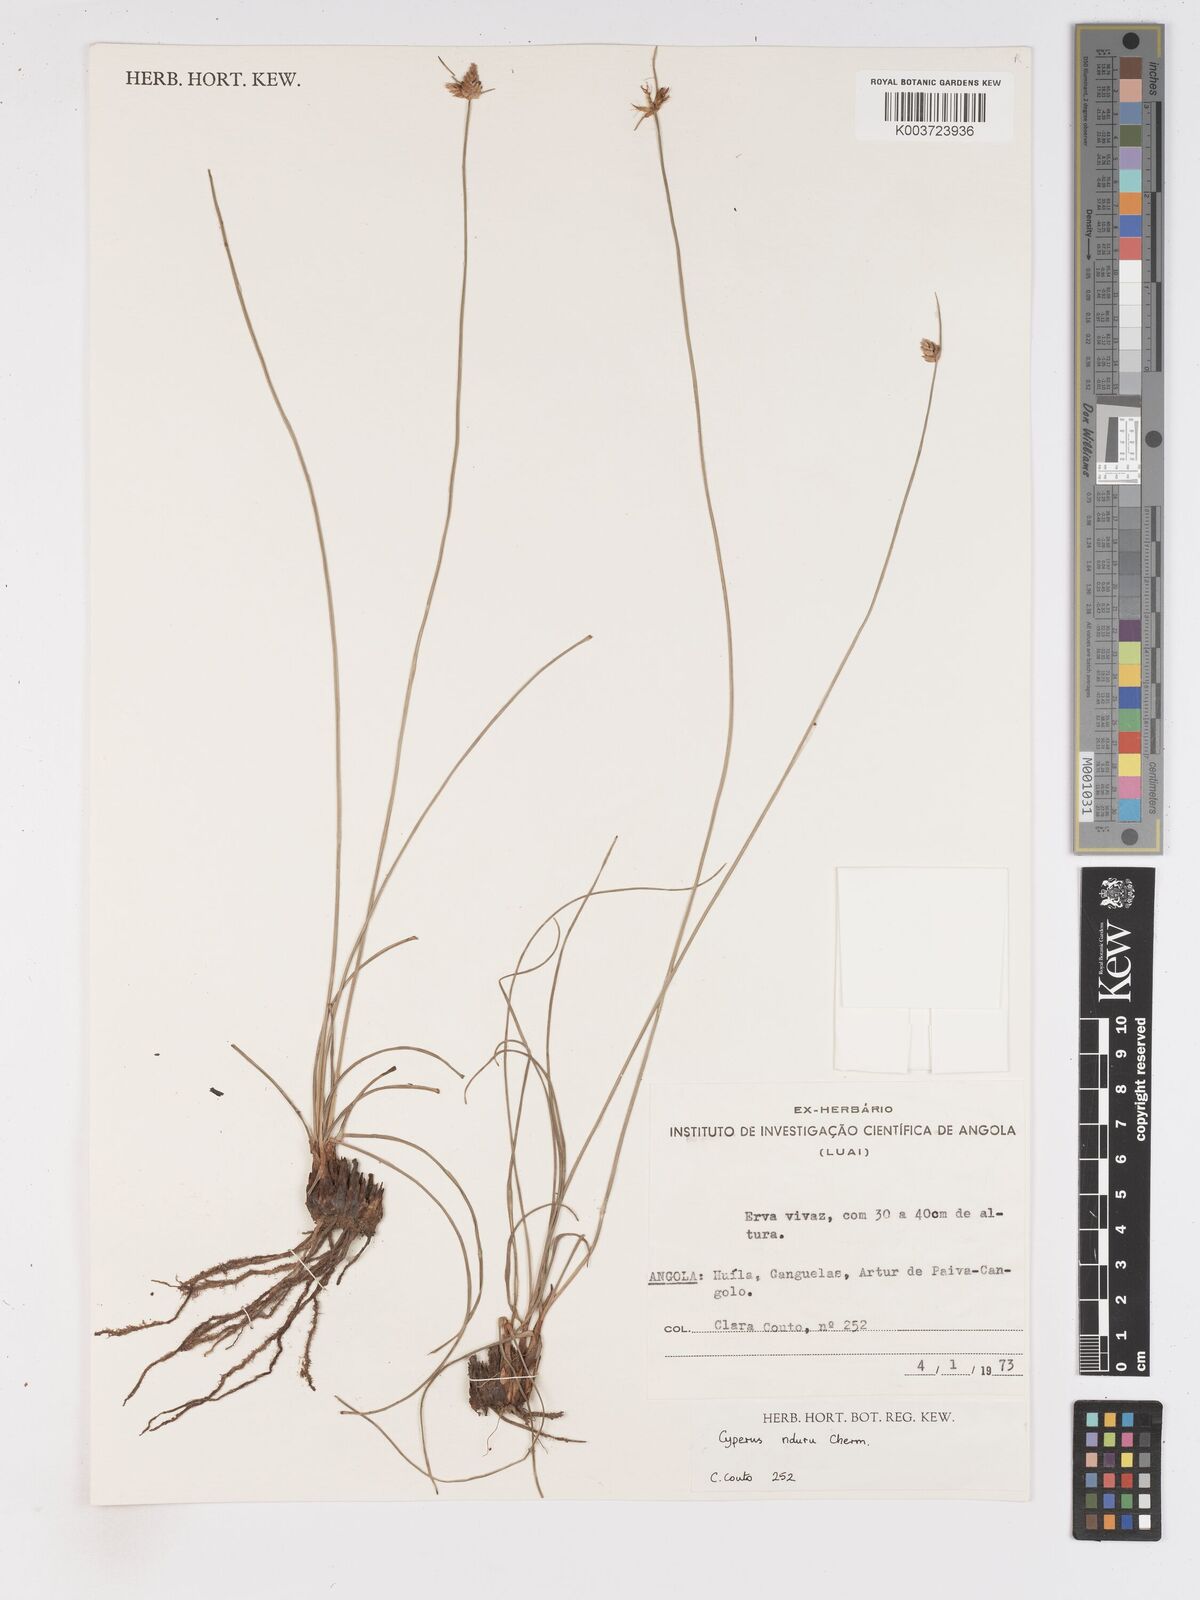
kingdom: Plantae
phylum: Tracheophyta
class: Liliopsida
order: Poales
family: Cyperaceae
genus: Cyperus
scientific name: Cyperus nduru
